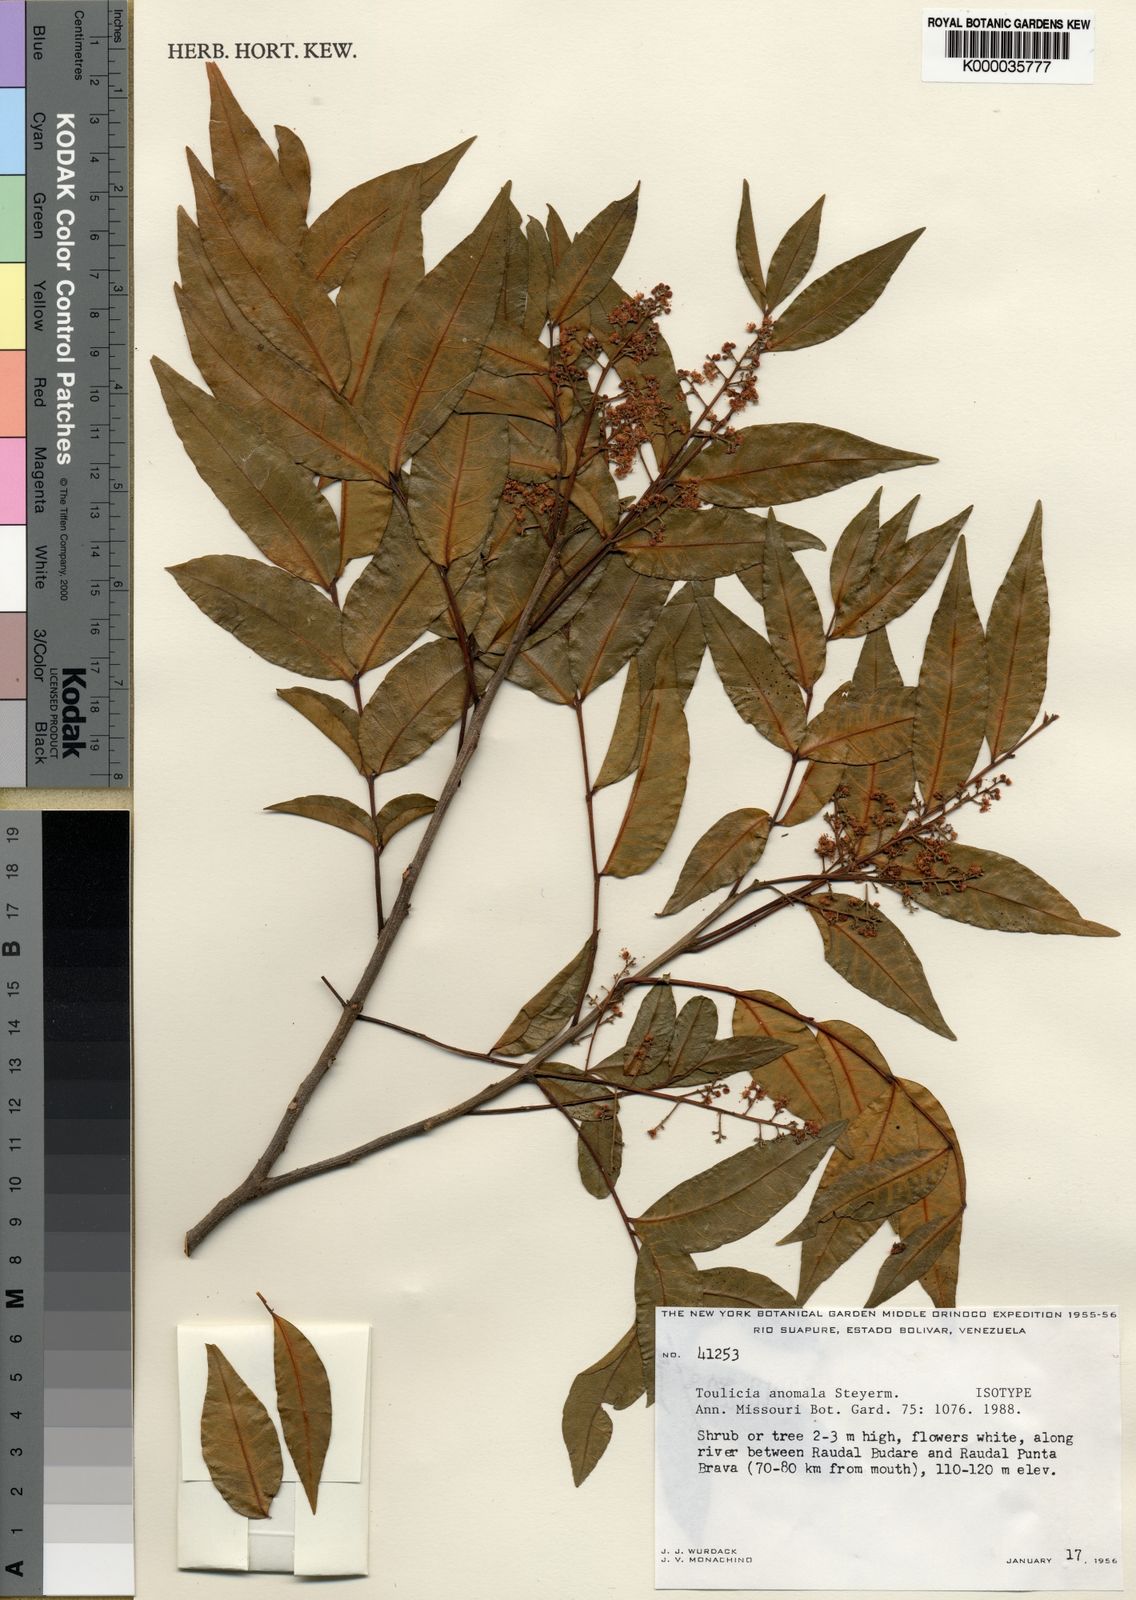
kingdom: Plantae
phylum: Tracheophyta
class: Magnoliopsida
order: Sapindales
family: Sapindaceae
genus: Vouarana
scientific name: Vouarana anomala
